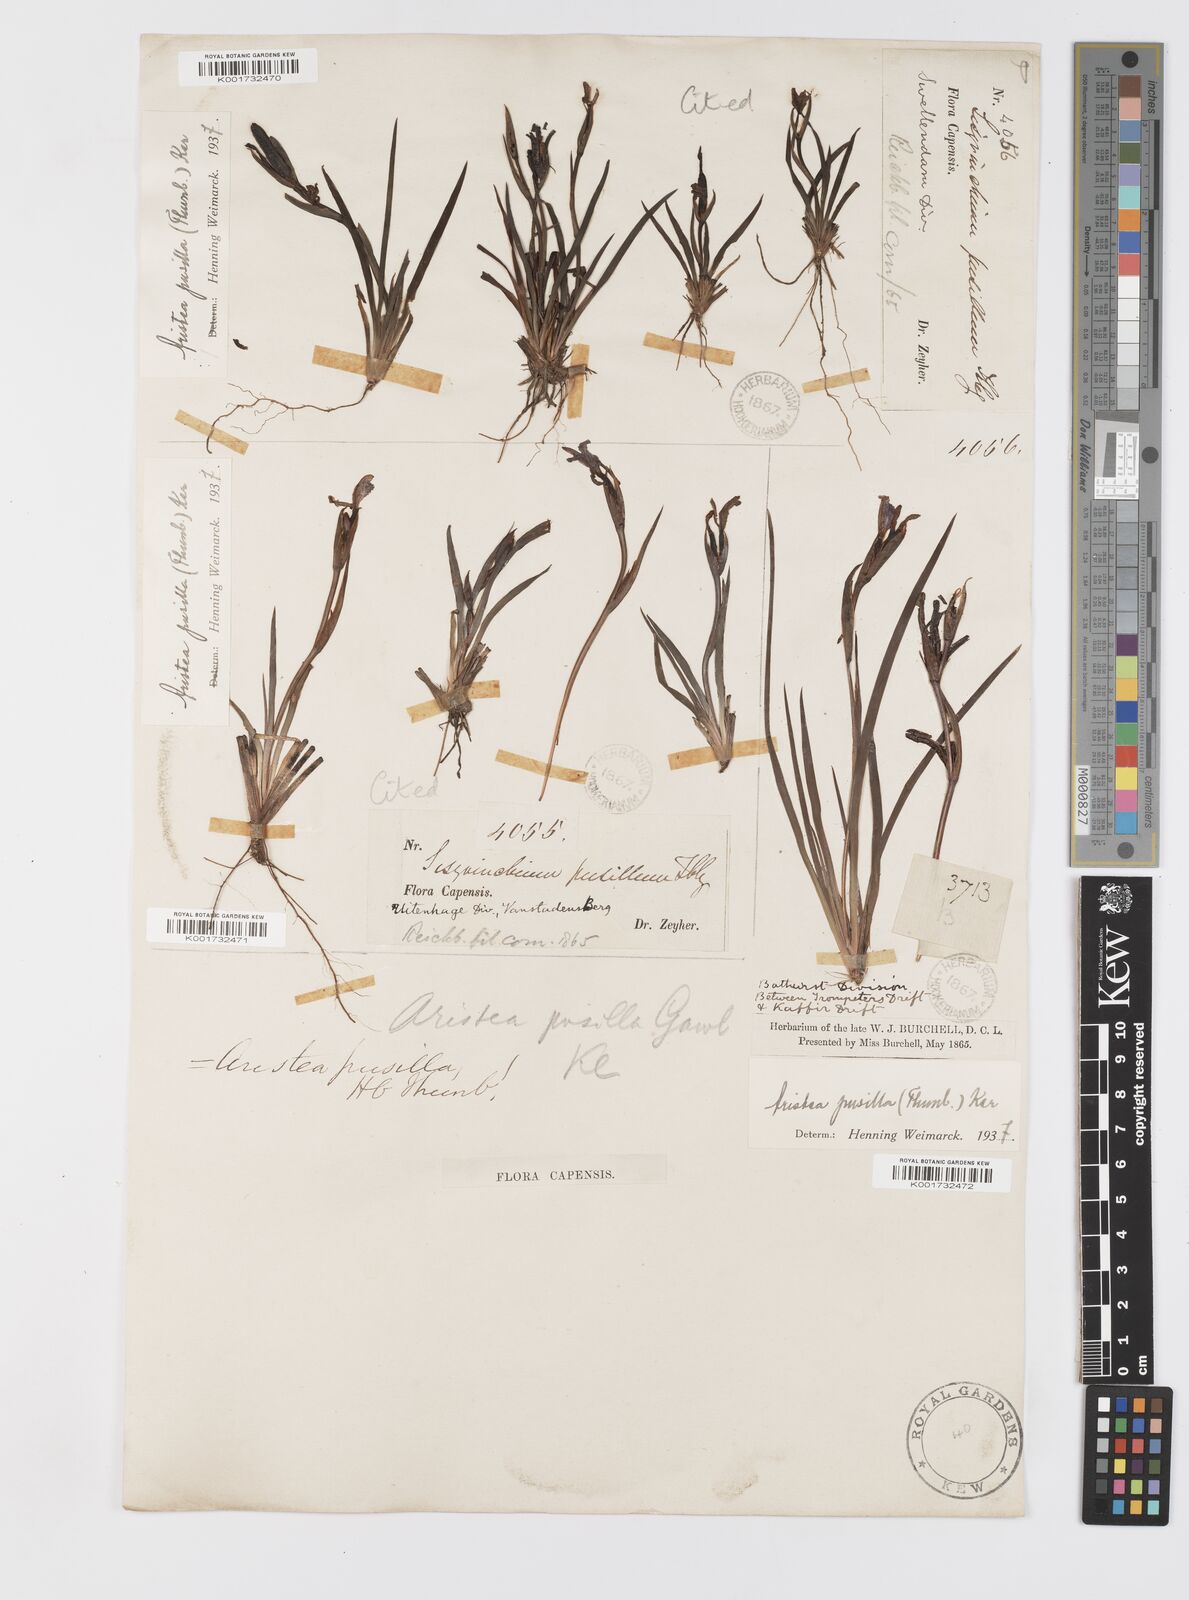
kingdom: Plantae
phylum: Tracheophyta
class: Liliopsida
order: Asparagales
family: Iridaceae
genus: Aristea
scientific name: Aristea pusilla
